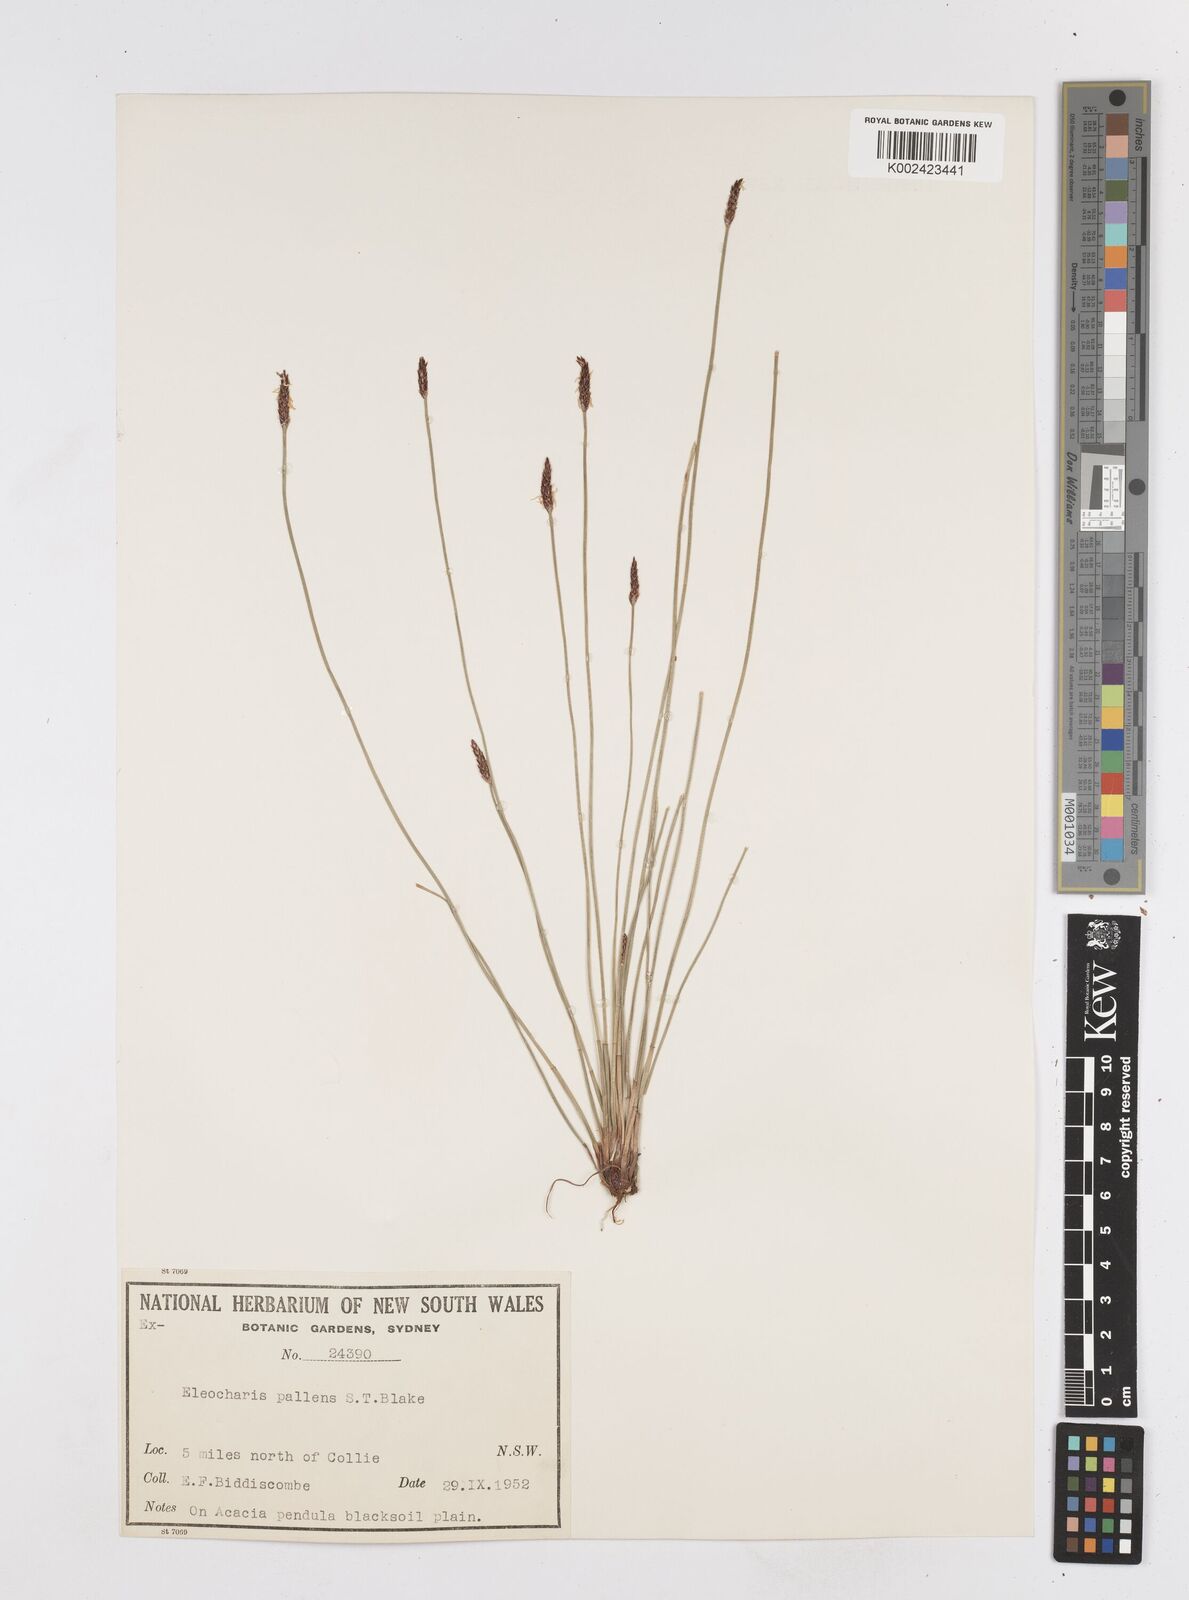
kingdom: Plantae
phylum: Tracheophyta
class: Liliopsida
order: Poales
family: Cyperaceae
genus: Eleocharis
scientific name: Eleocharis acuta
